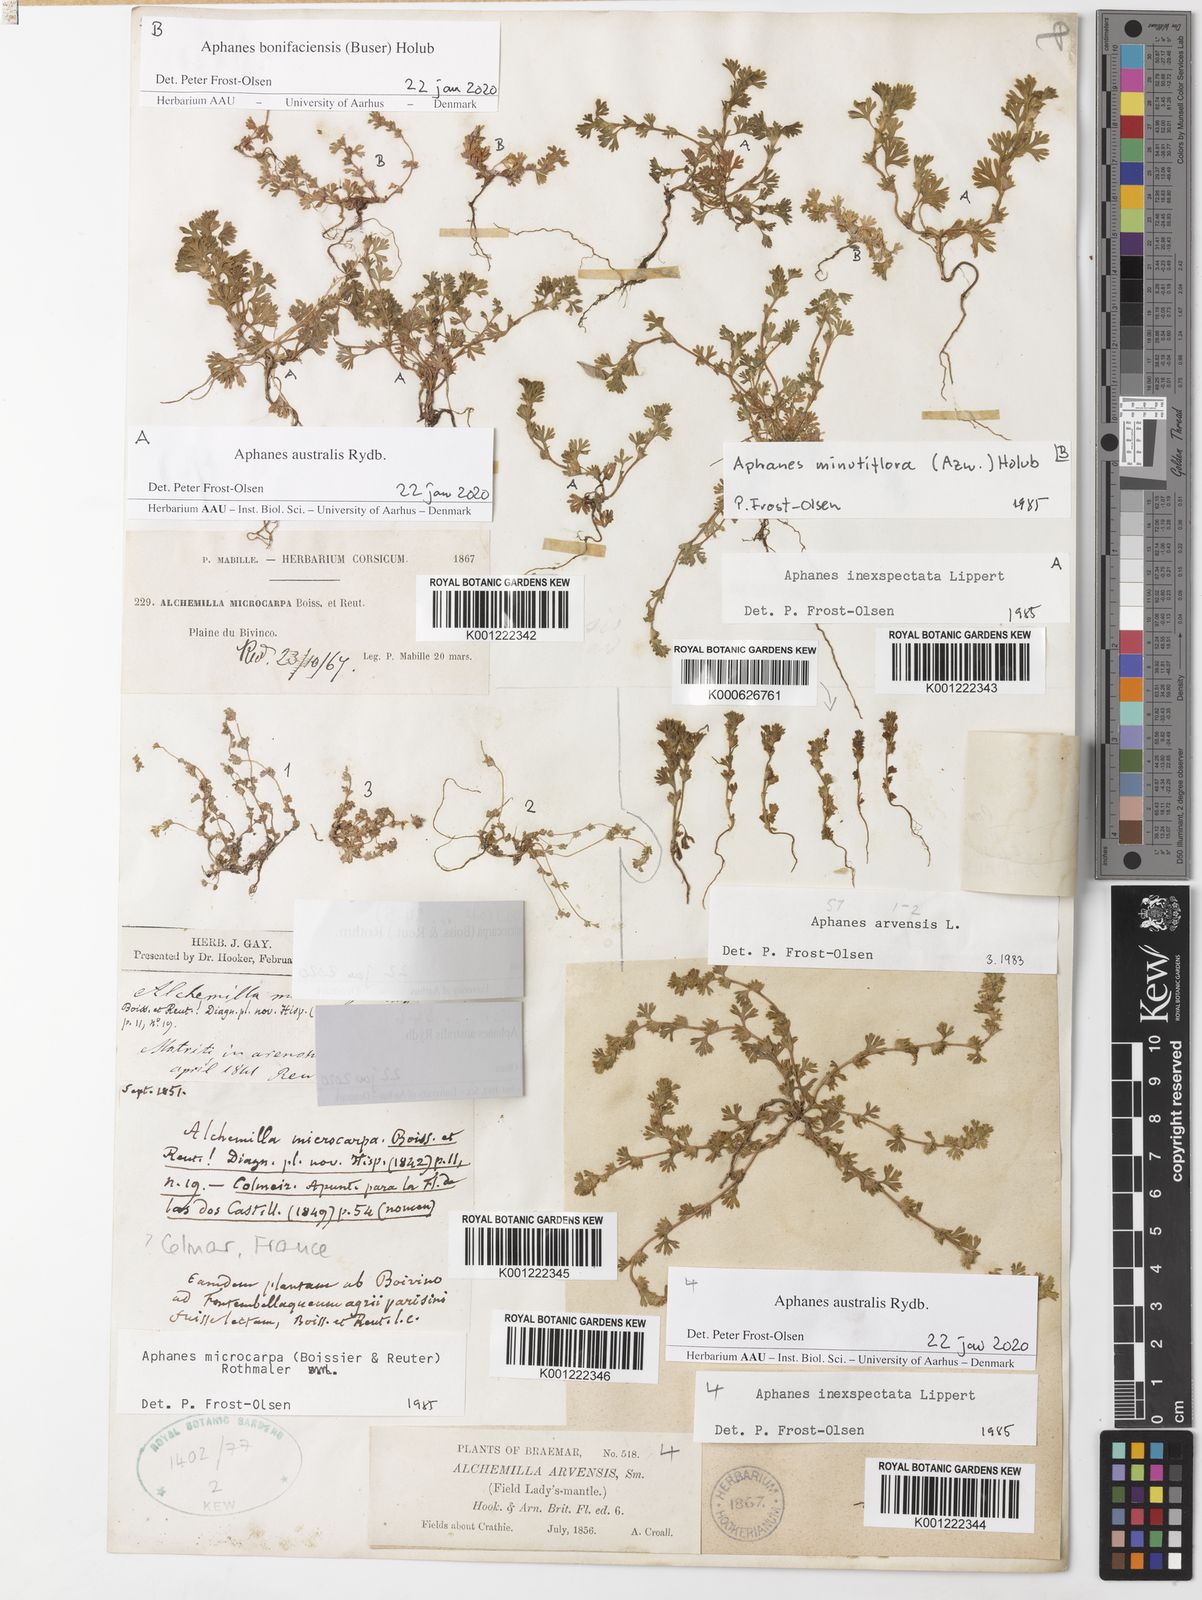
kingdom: Plantae
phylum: Tracheophyta
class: Magnoliopsida
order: Rosales
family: Rosaceae
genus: Aphanes
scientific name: Aphanes arvensis
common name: Parsley-piert
